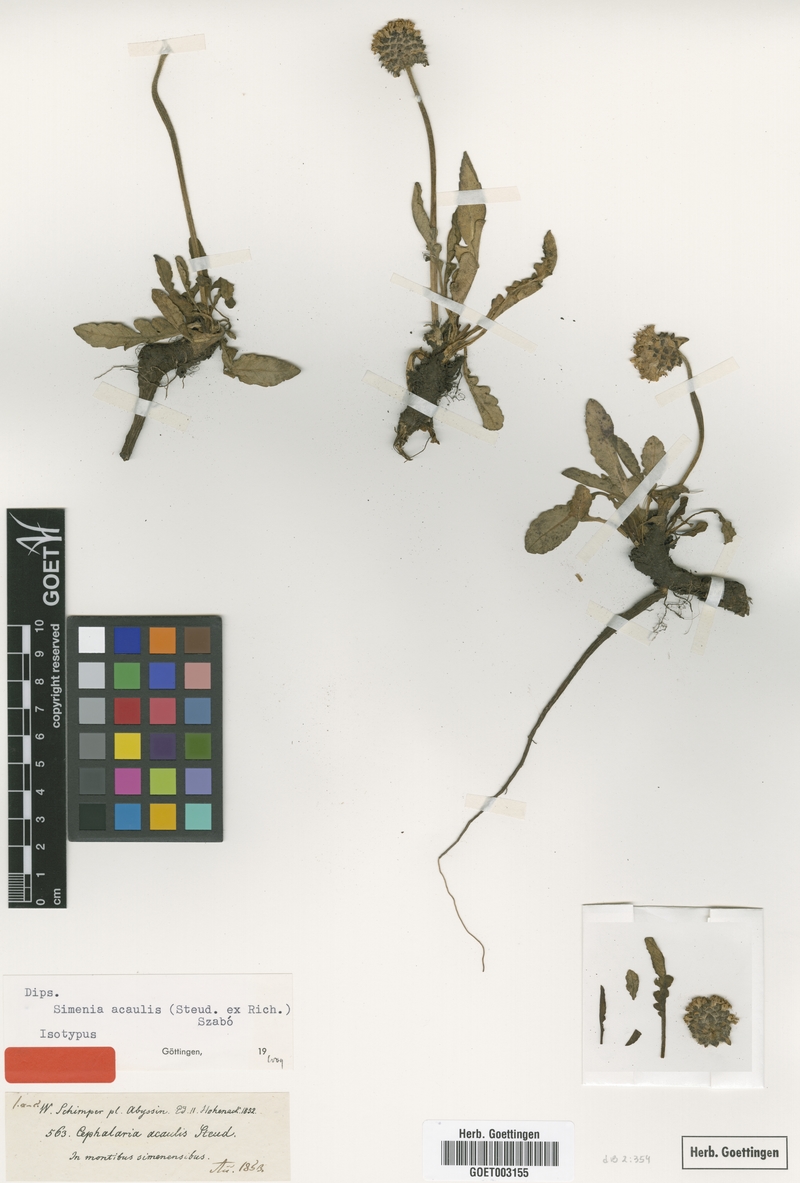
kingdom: Plantae
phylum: Tracheophyta
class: Magnoliopsida
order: Dipsacales
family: Caprifoliaceae
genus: Dipsacus
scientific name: Dipsacus pinnatifidus
